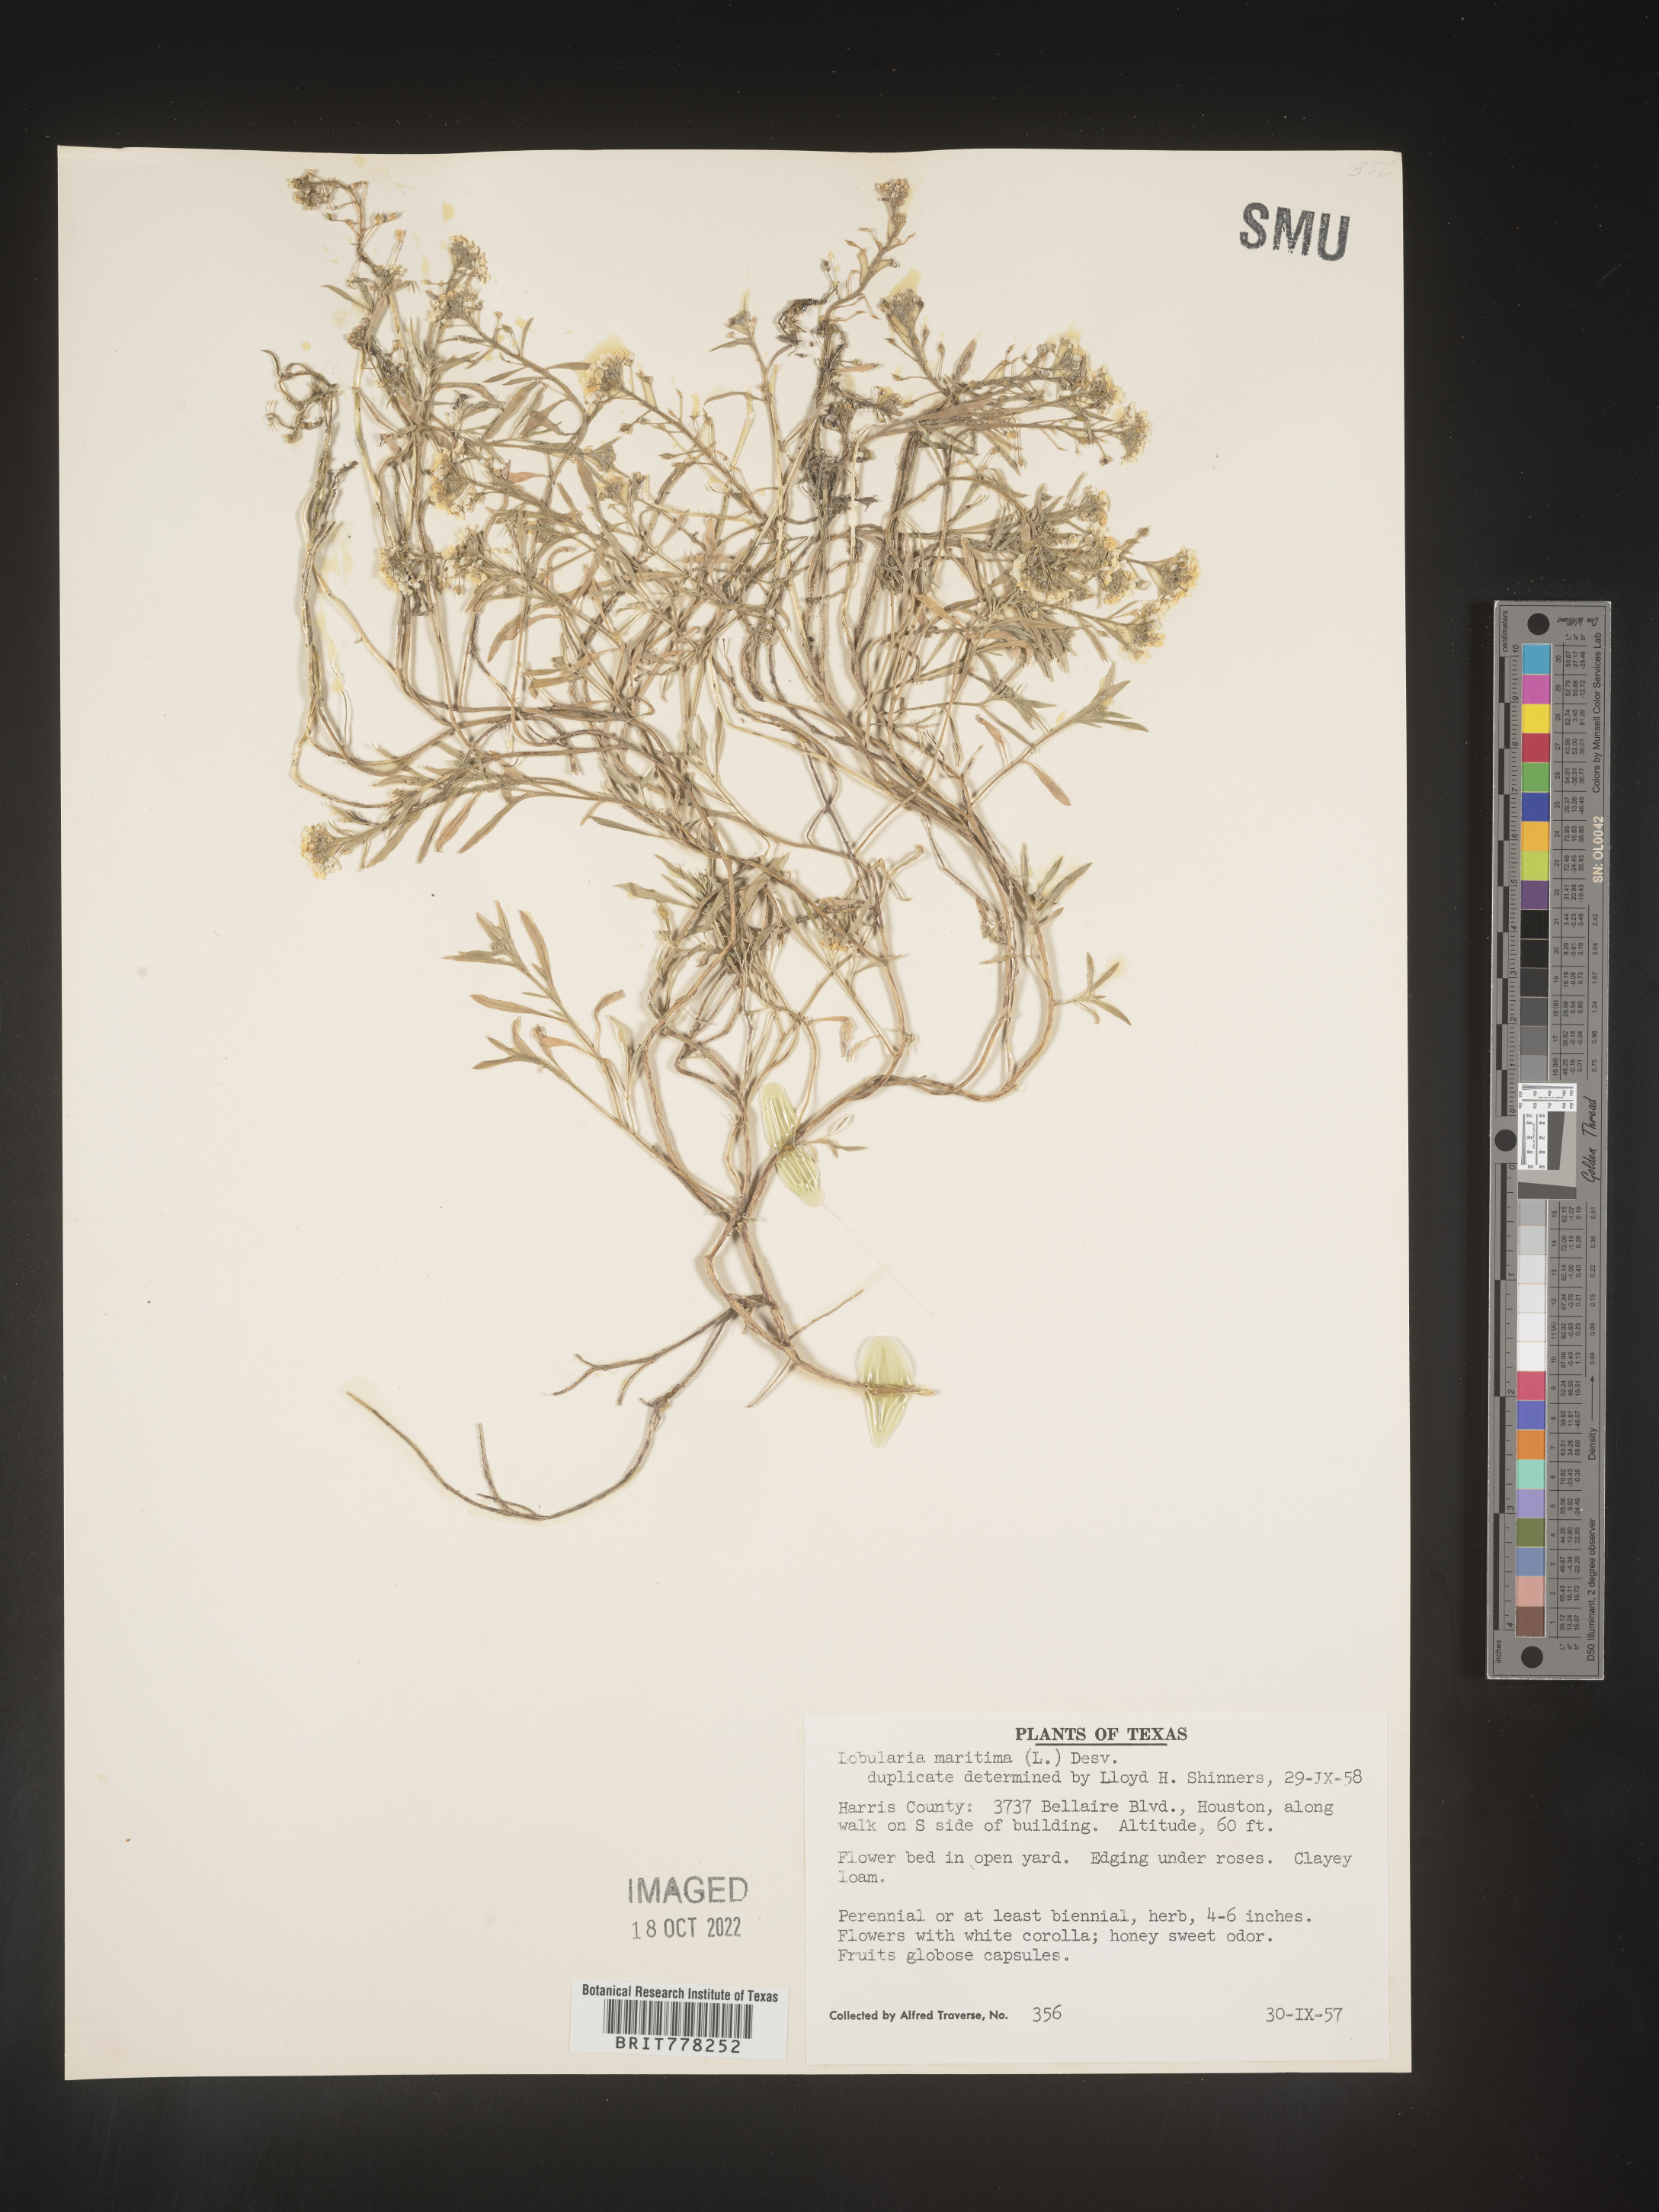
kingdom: Plantae
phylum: Tracheophyta
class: Magnoliopsida
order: Brassicales
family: Brassicaceae
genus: Lobularia
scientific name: Lobularia
